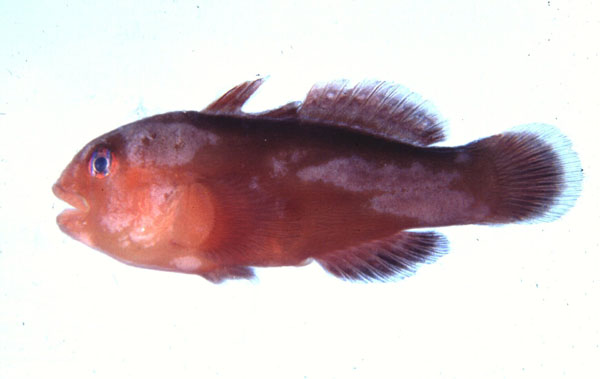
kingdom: Animalia
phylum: Chordata
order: Perciformes
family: Gobiidae
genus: Gobiodon
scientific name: Gobiodon unicolor
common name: Unicolor coralgoby
